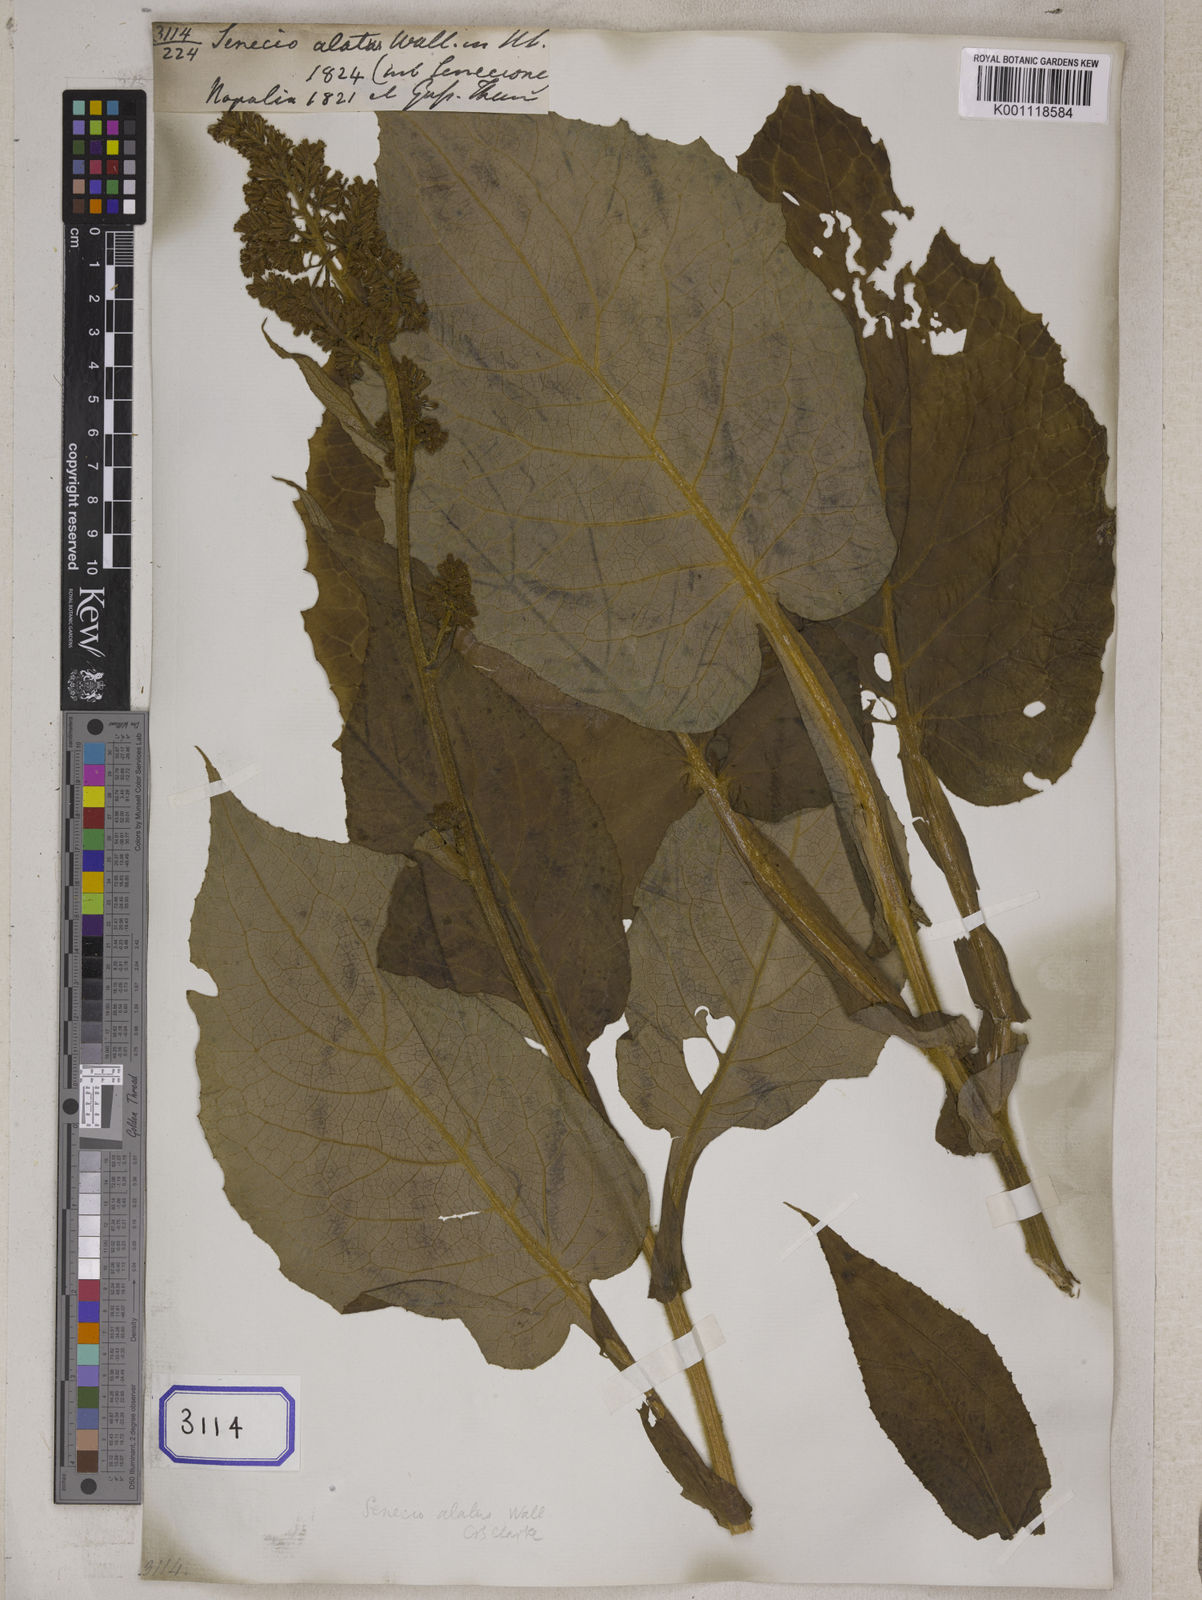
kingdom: Plantae
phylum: Tracheophyta
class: Magnoliopsida
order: Asterales
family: Asteraceae
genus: Synotis
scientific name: Synotis alata
